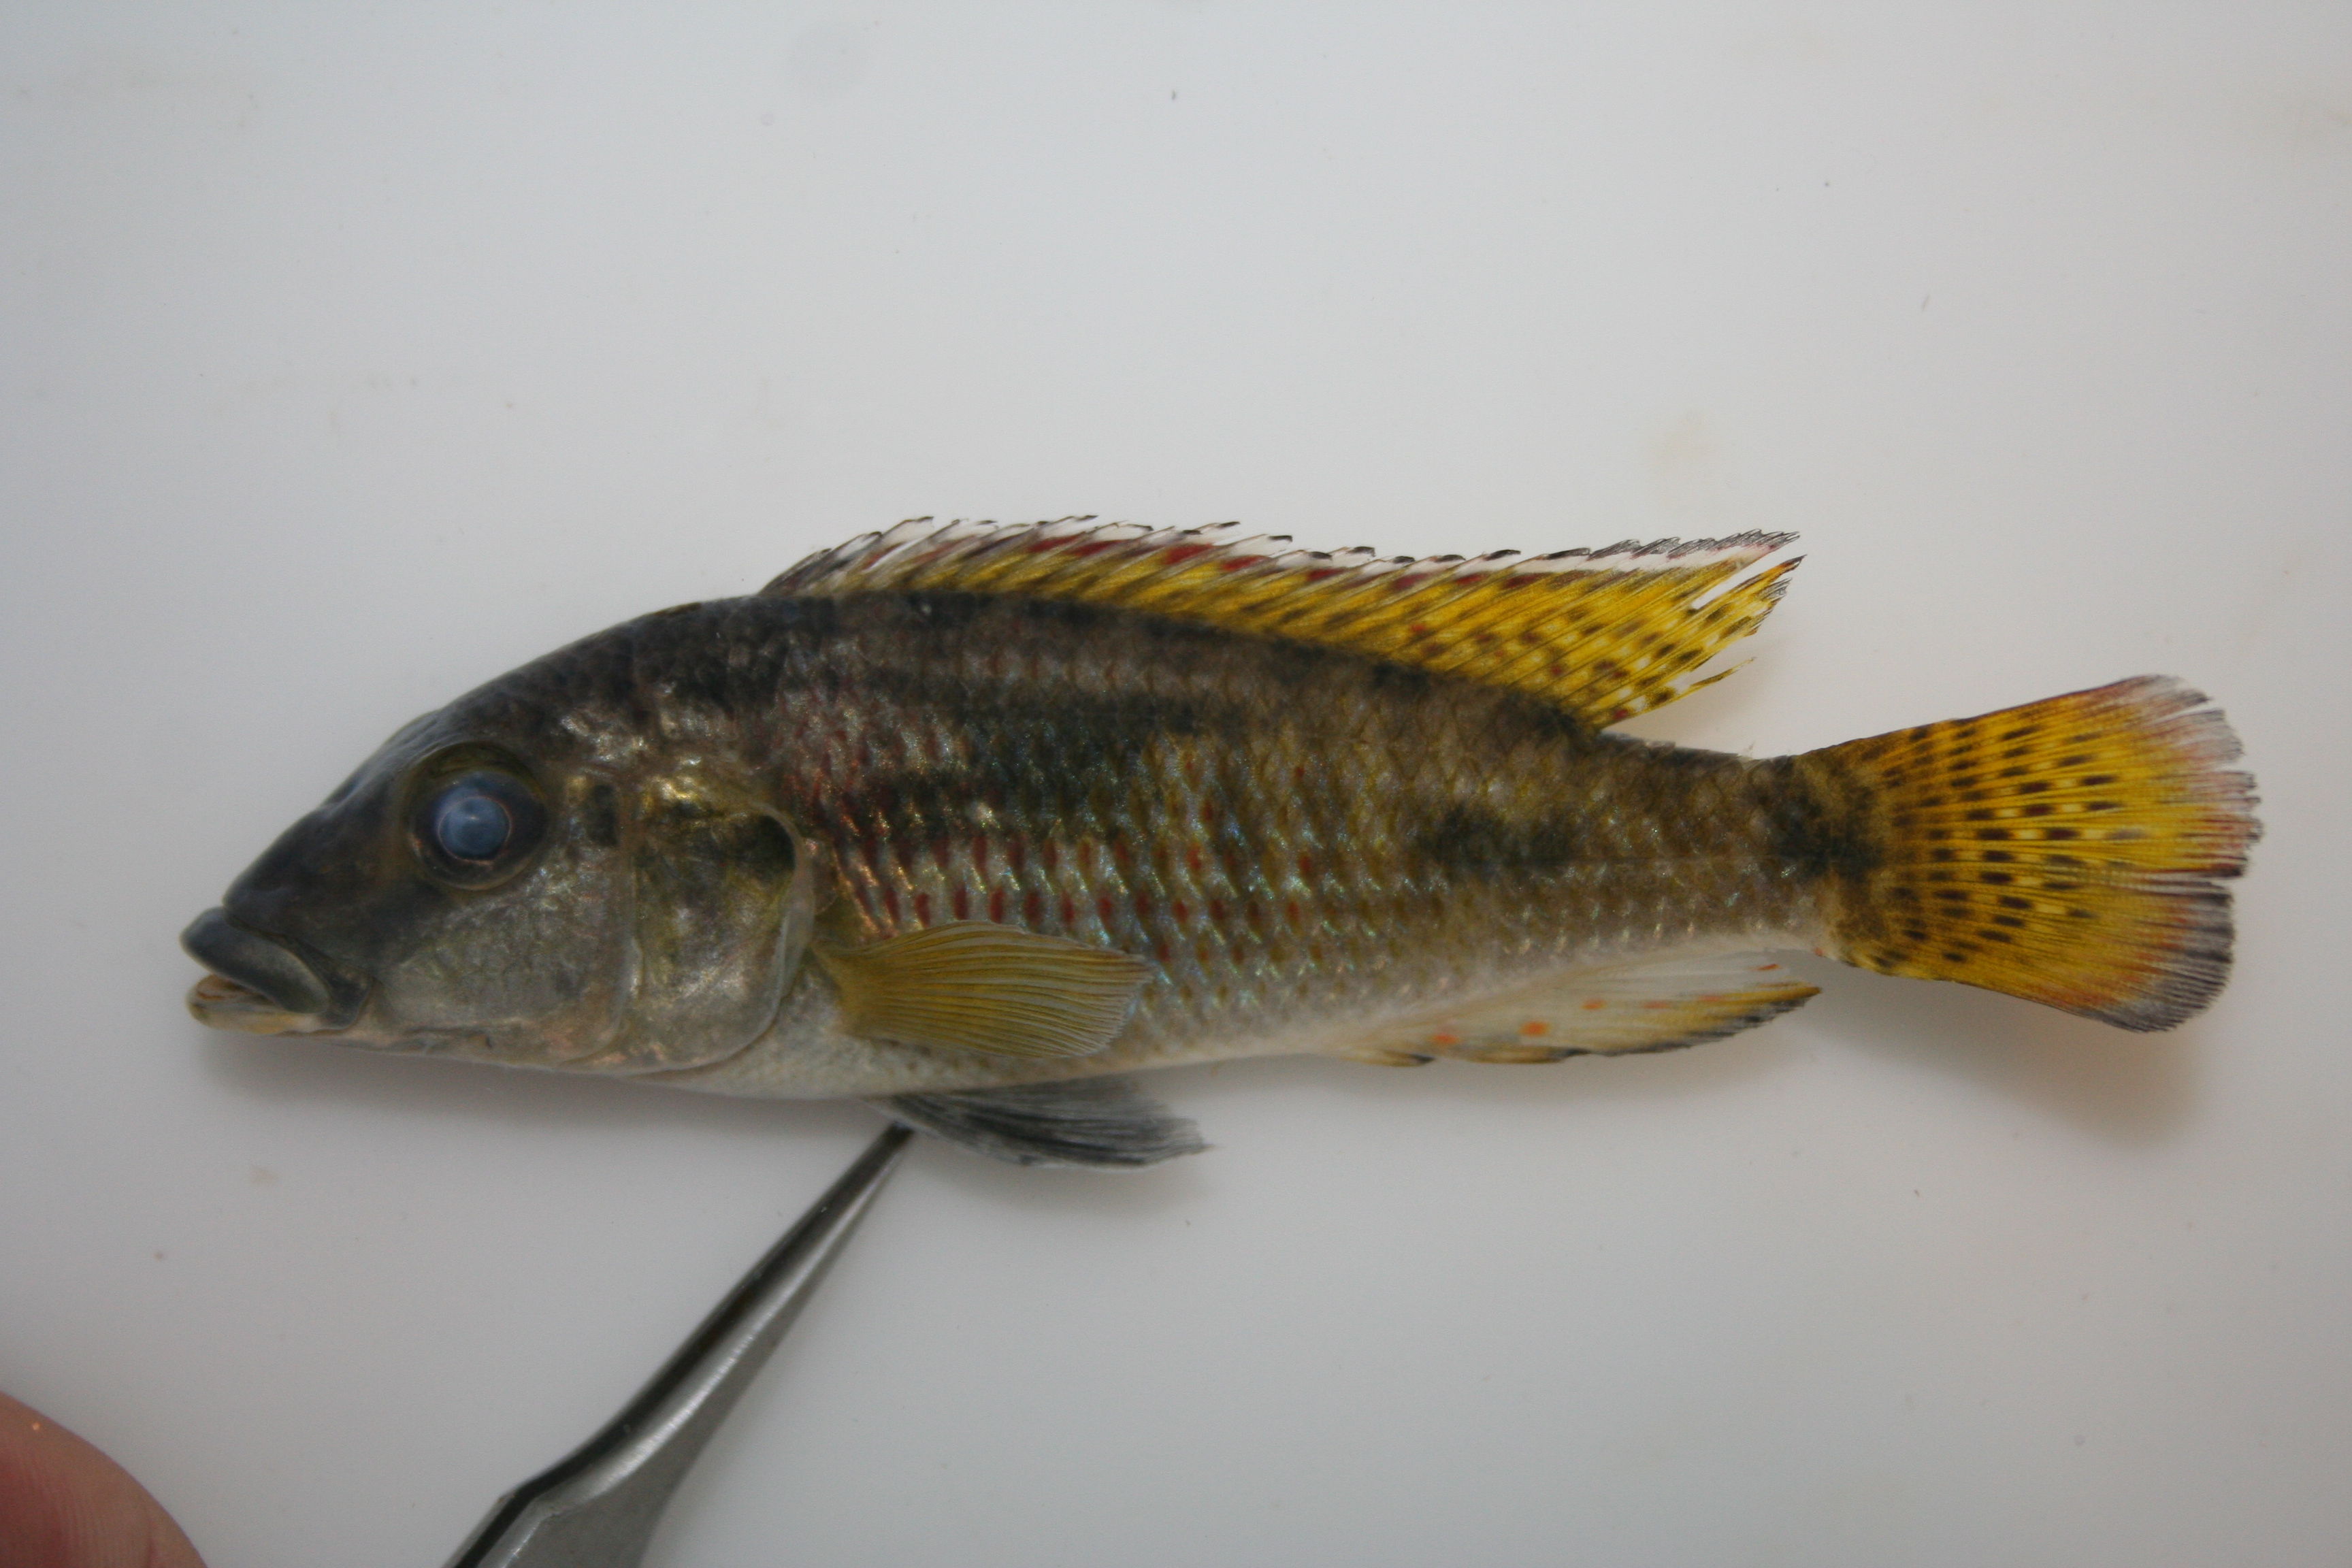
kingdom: Animalia
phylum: Chordata
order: Perciformes
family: Cichlidae
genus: Pharyngochromis
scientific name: Pharyngochromis
